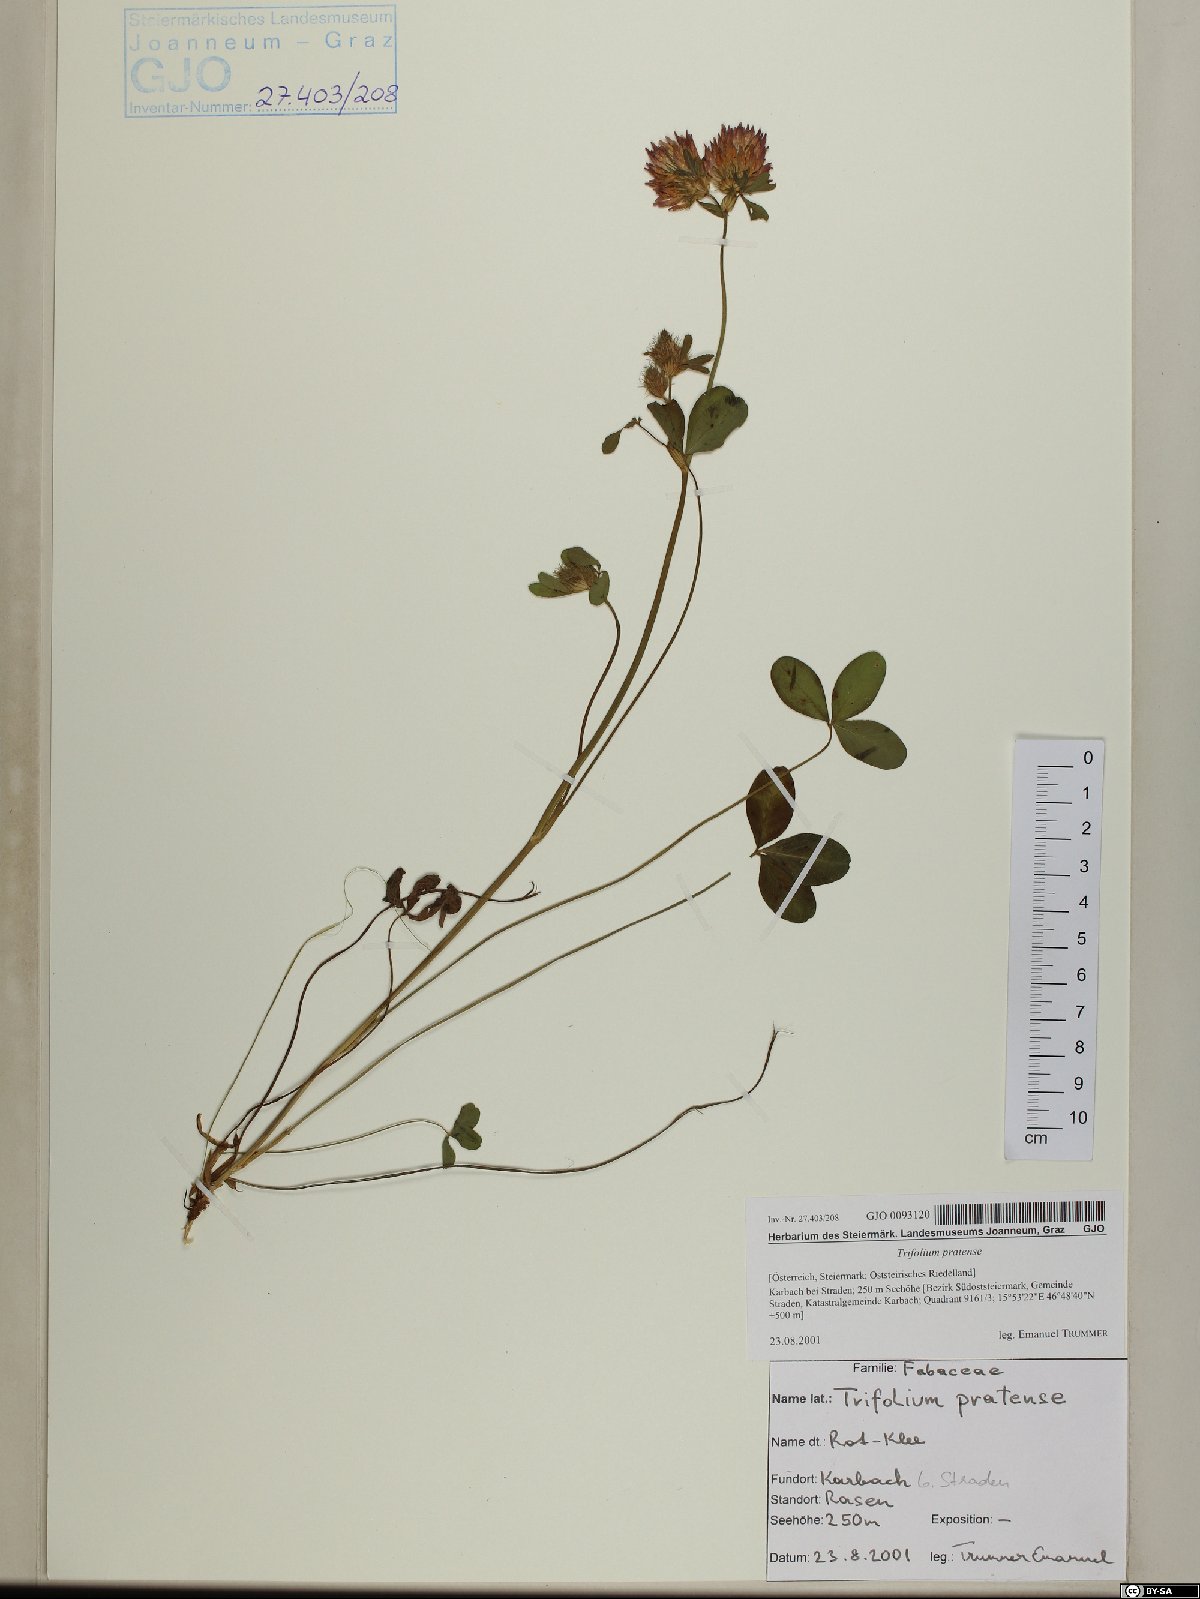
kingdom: Plantae
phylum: Tracheophyta
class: Magnoliopsida
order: Fabales
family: Fabaceae
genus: Trifolium
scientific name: Trifolium pratense
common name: Red clover
